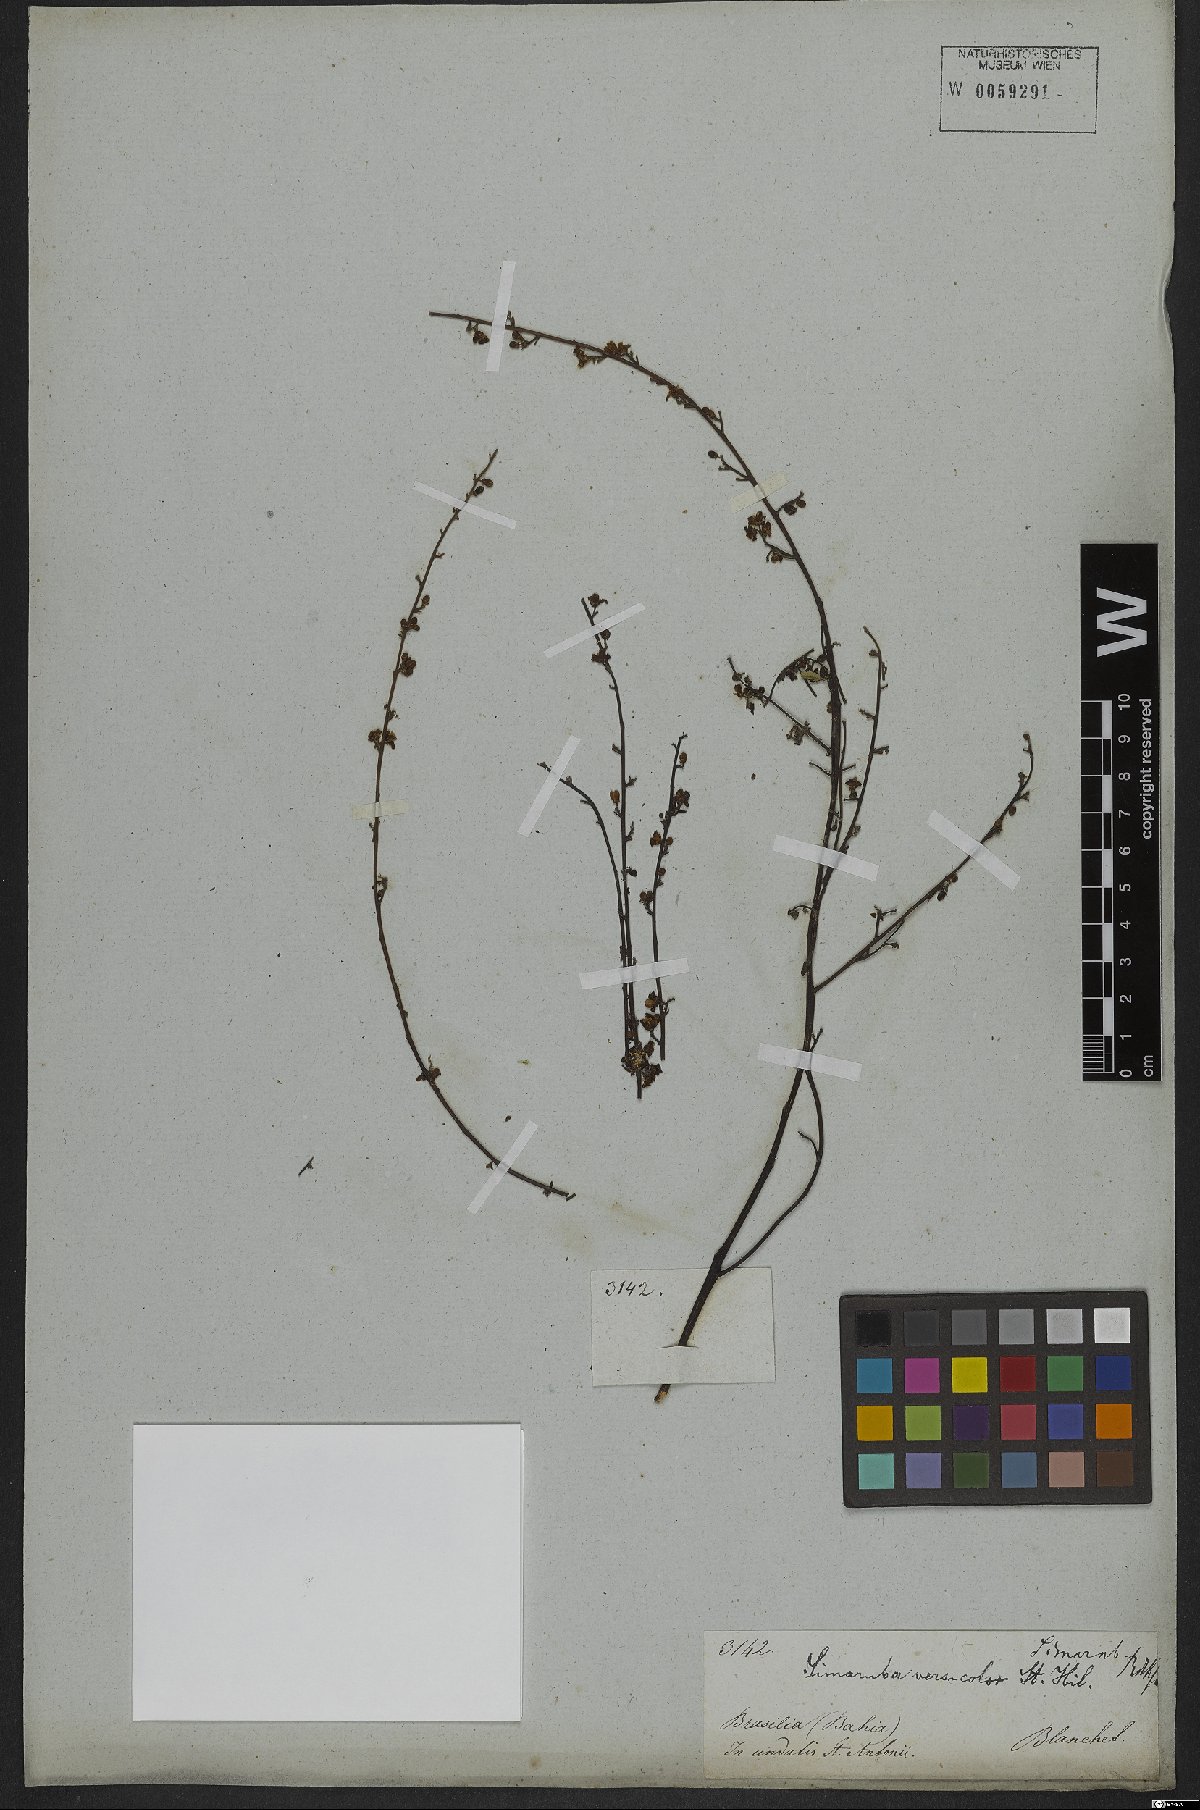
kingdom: Plantae
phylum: Tracheophyta
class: Magnoliopsida
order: Sapindales
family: Simaroubaceae
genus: Simaba
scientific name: Simaba
